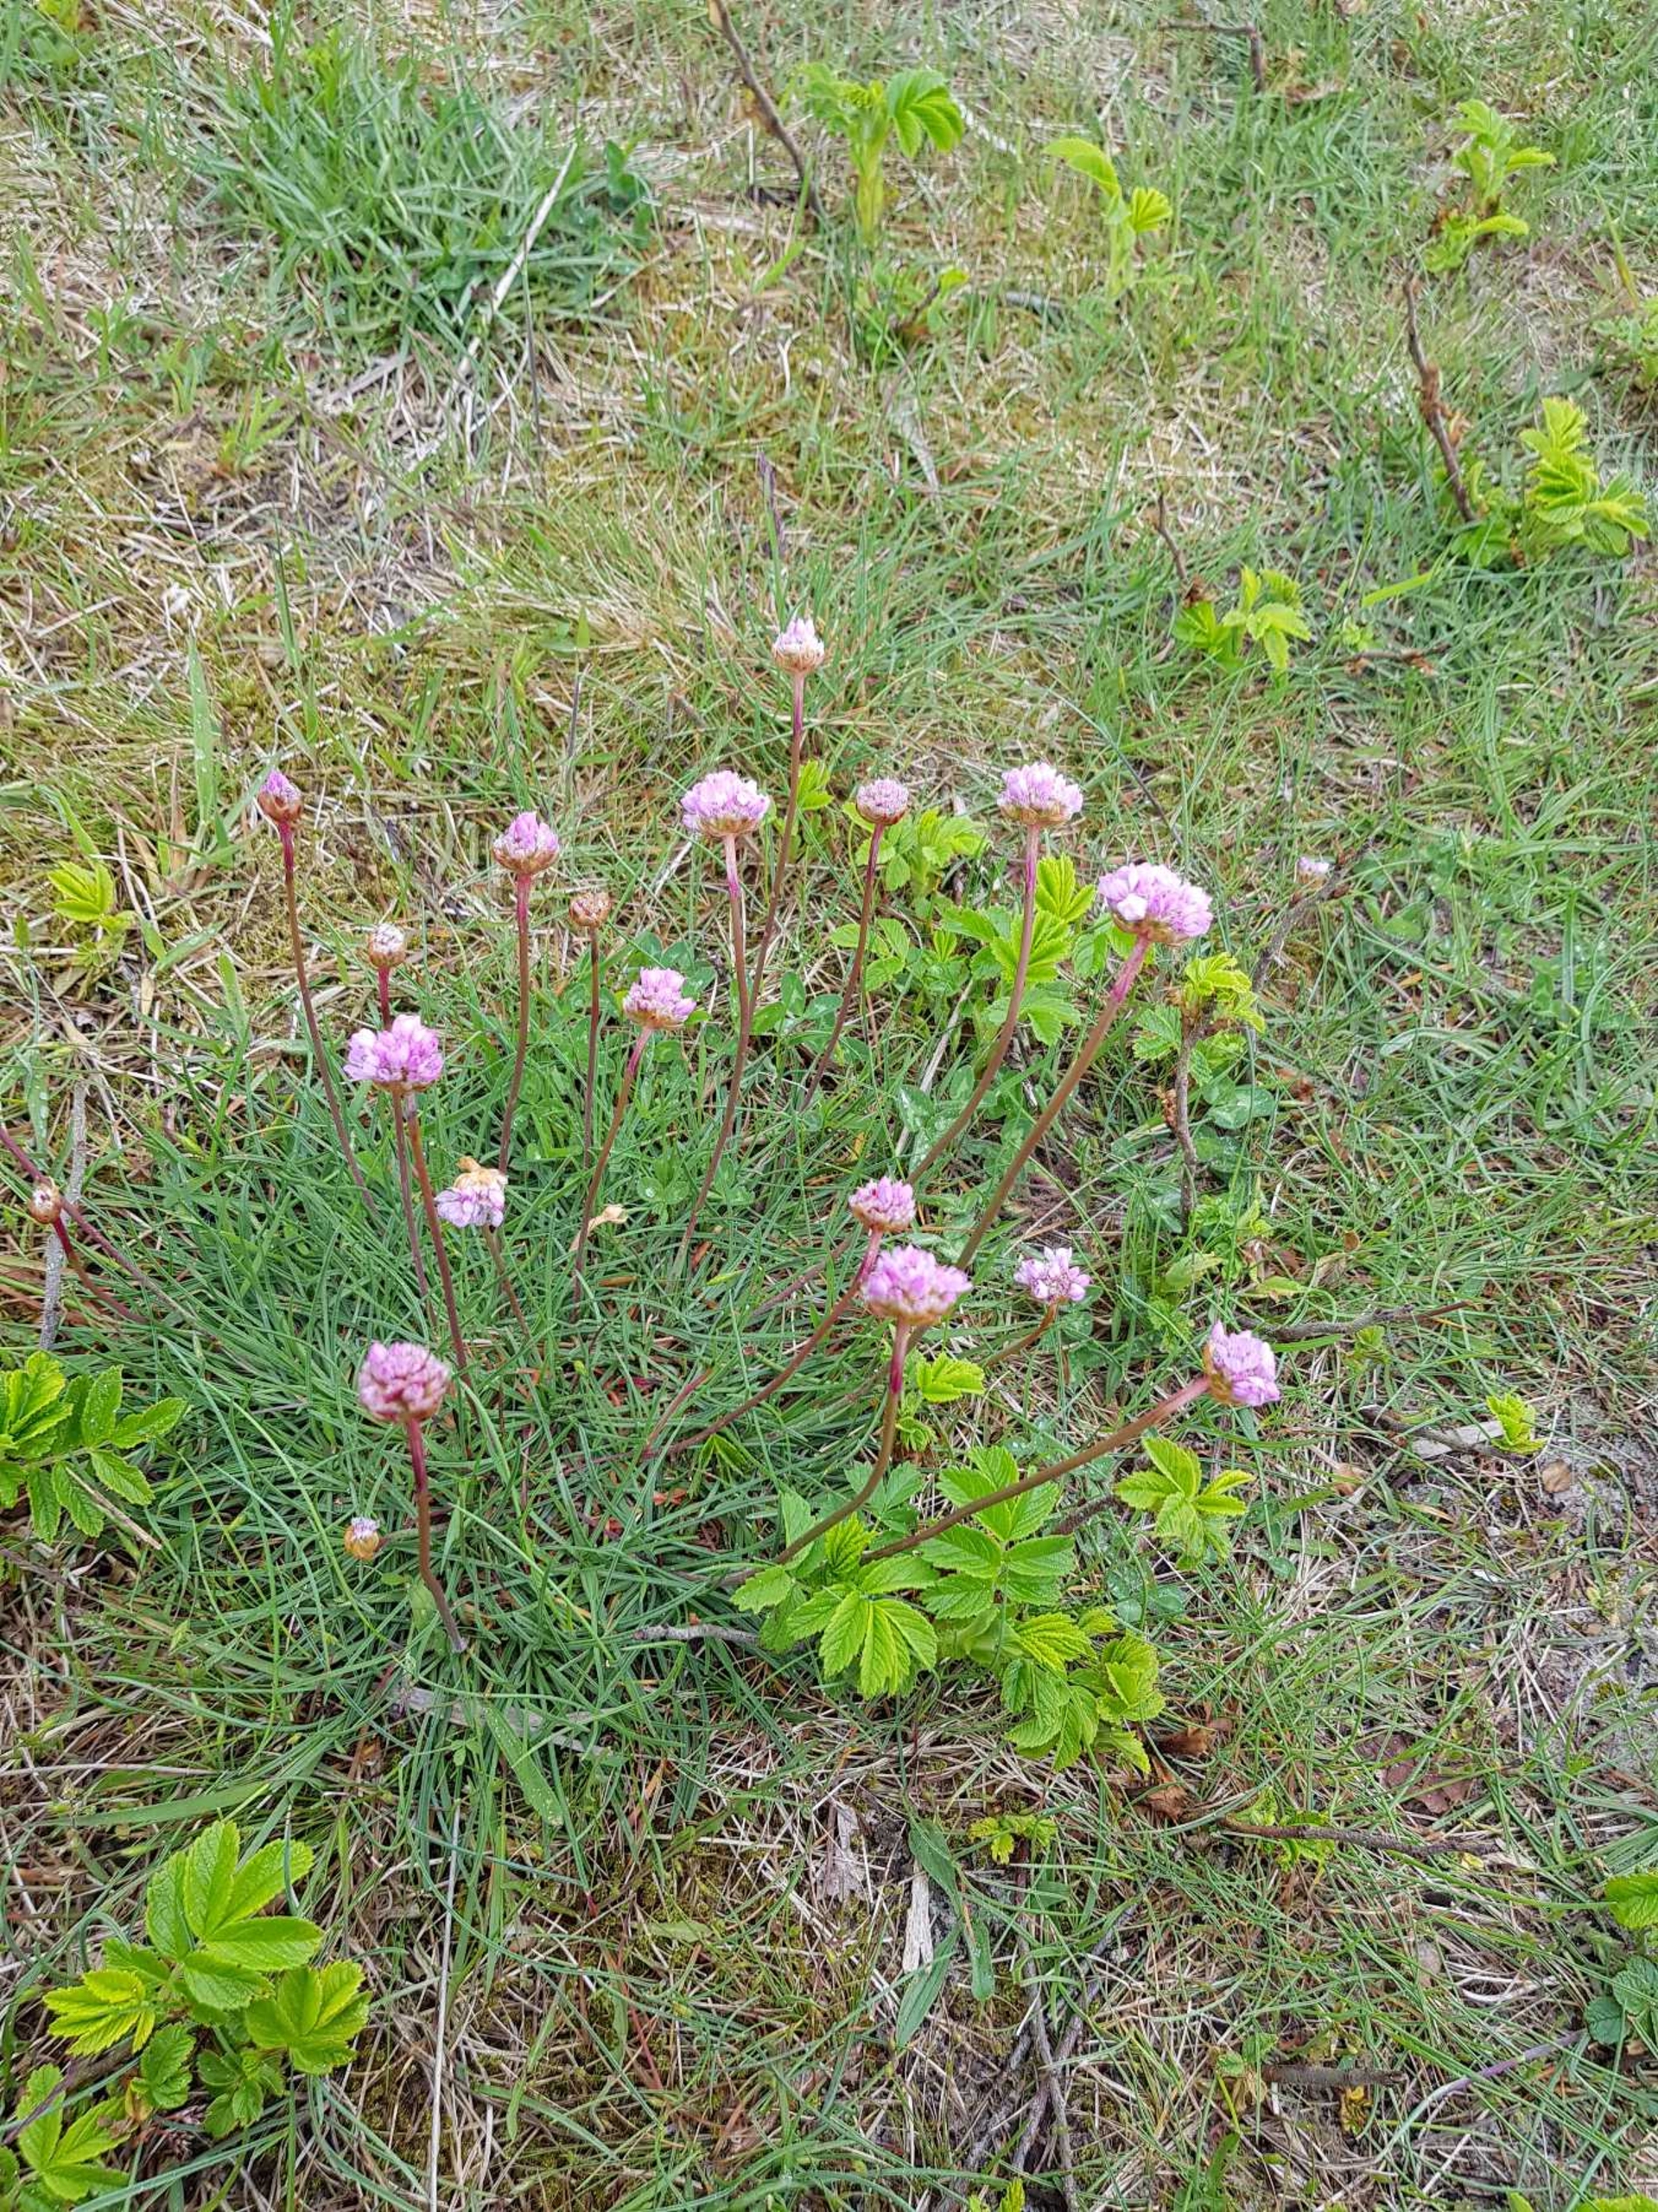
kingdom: Plantae
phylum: Tracheophyta
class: Magnoliopsida
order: Caryophyllales
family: Plumbaginaceae
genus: Armeria
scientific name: Armeria maritima
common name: Engelskgræs
